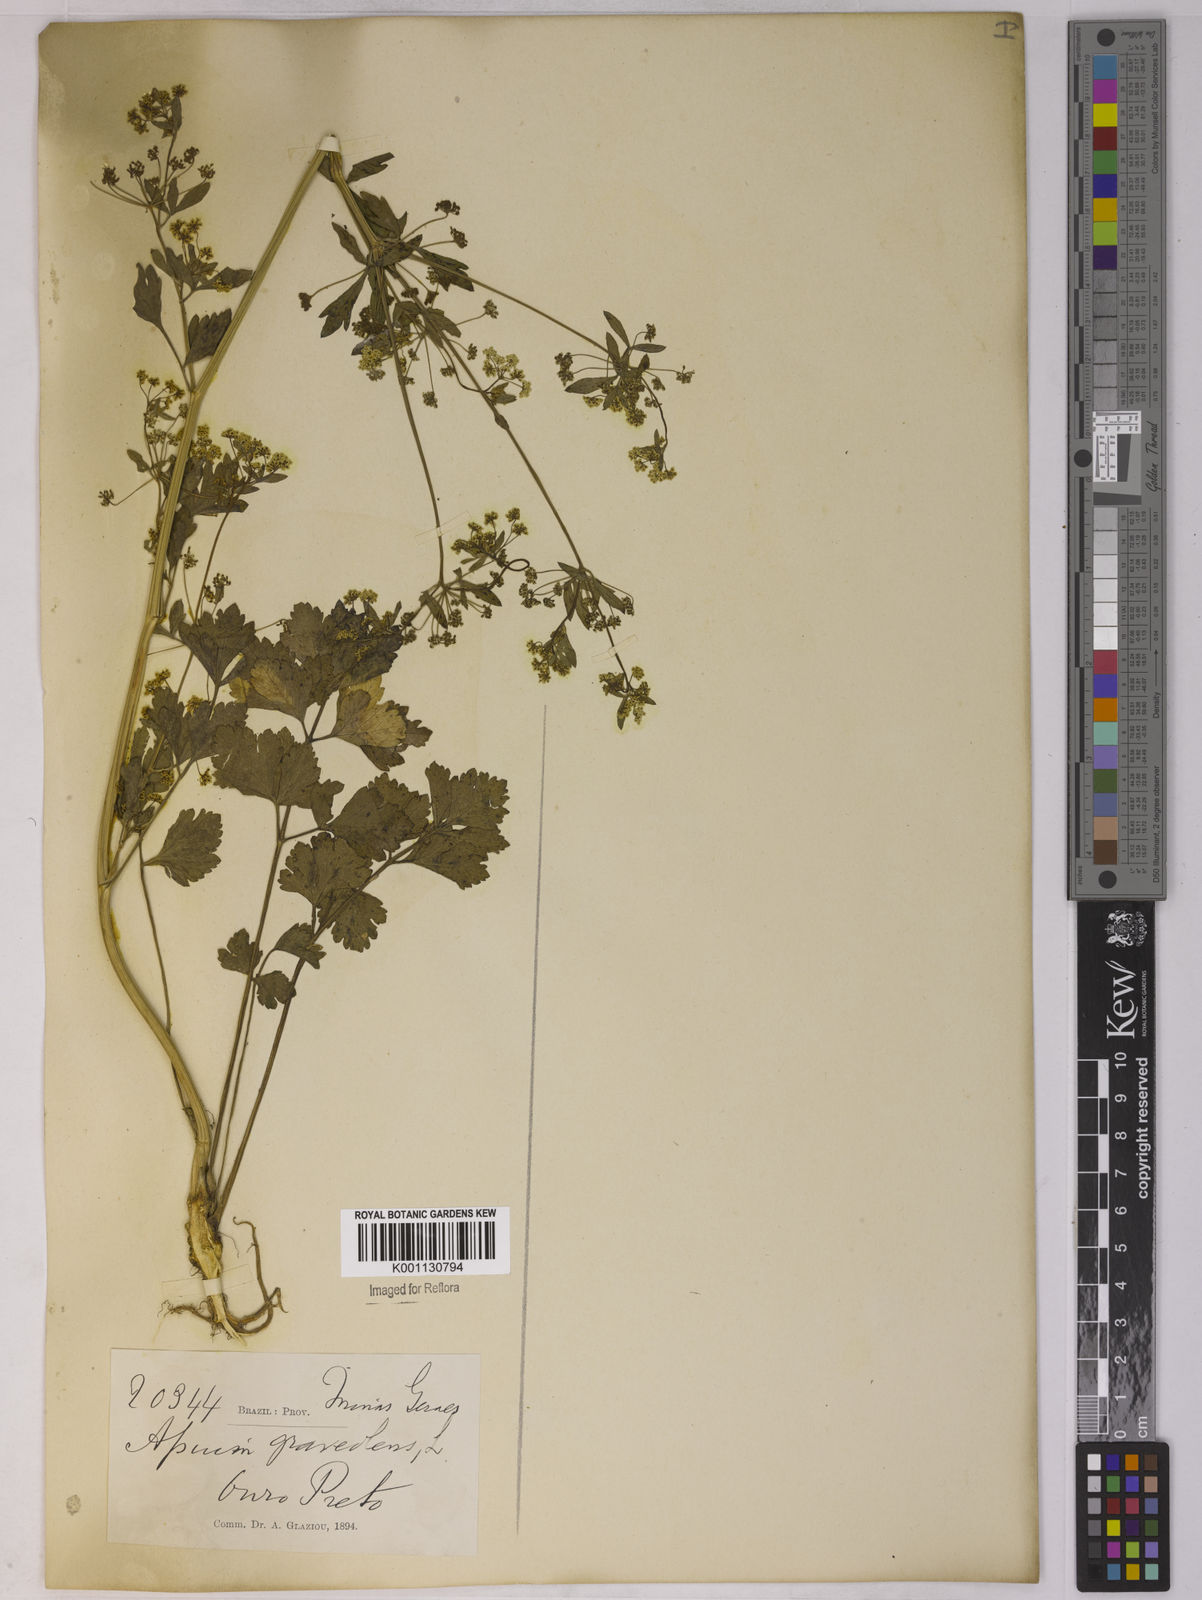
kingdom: Plantae
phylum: Tracheophyta
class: Magnoliopsida
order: Apiales
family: Apiaceae
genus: Apium
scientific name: Apium graveolens
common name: Wild celery
